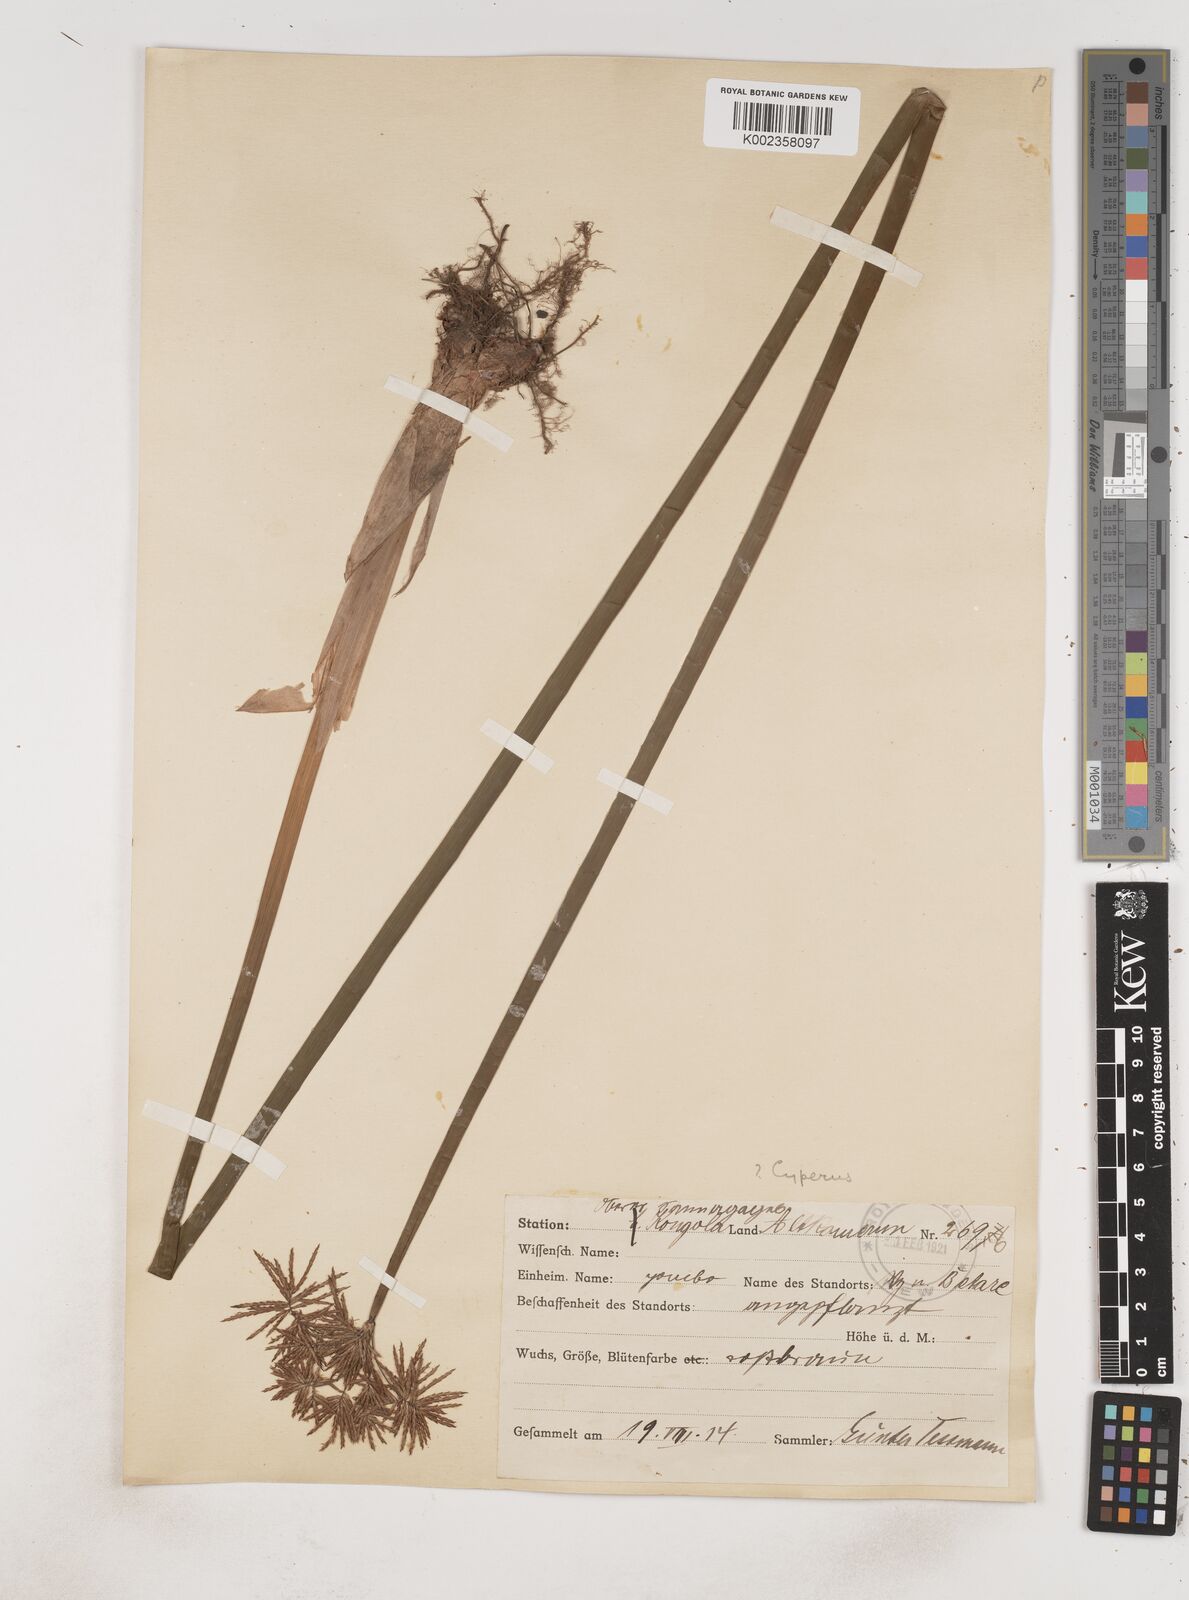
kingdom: Plantae
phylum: Tracheophyta
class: Liliopsida
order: Poales
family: Cyperaceae
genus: Cyperus
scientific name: Cyperus articulatus
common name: Jointed flatsedge
